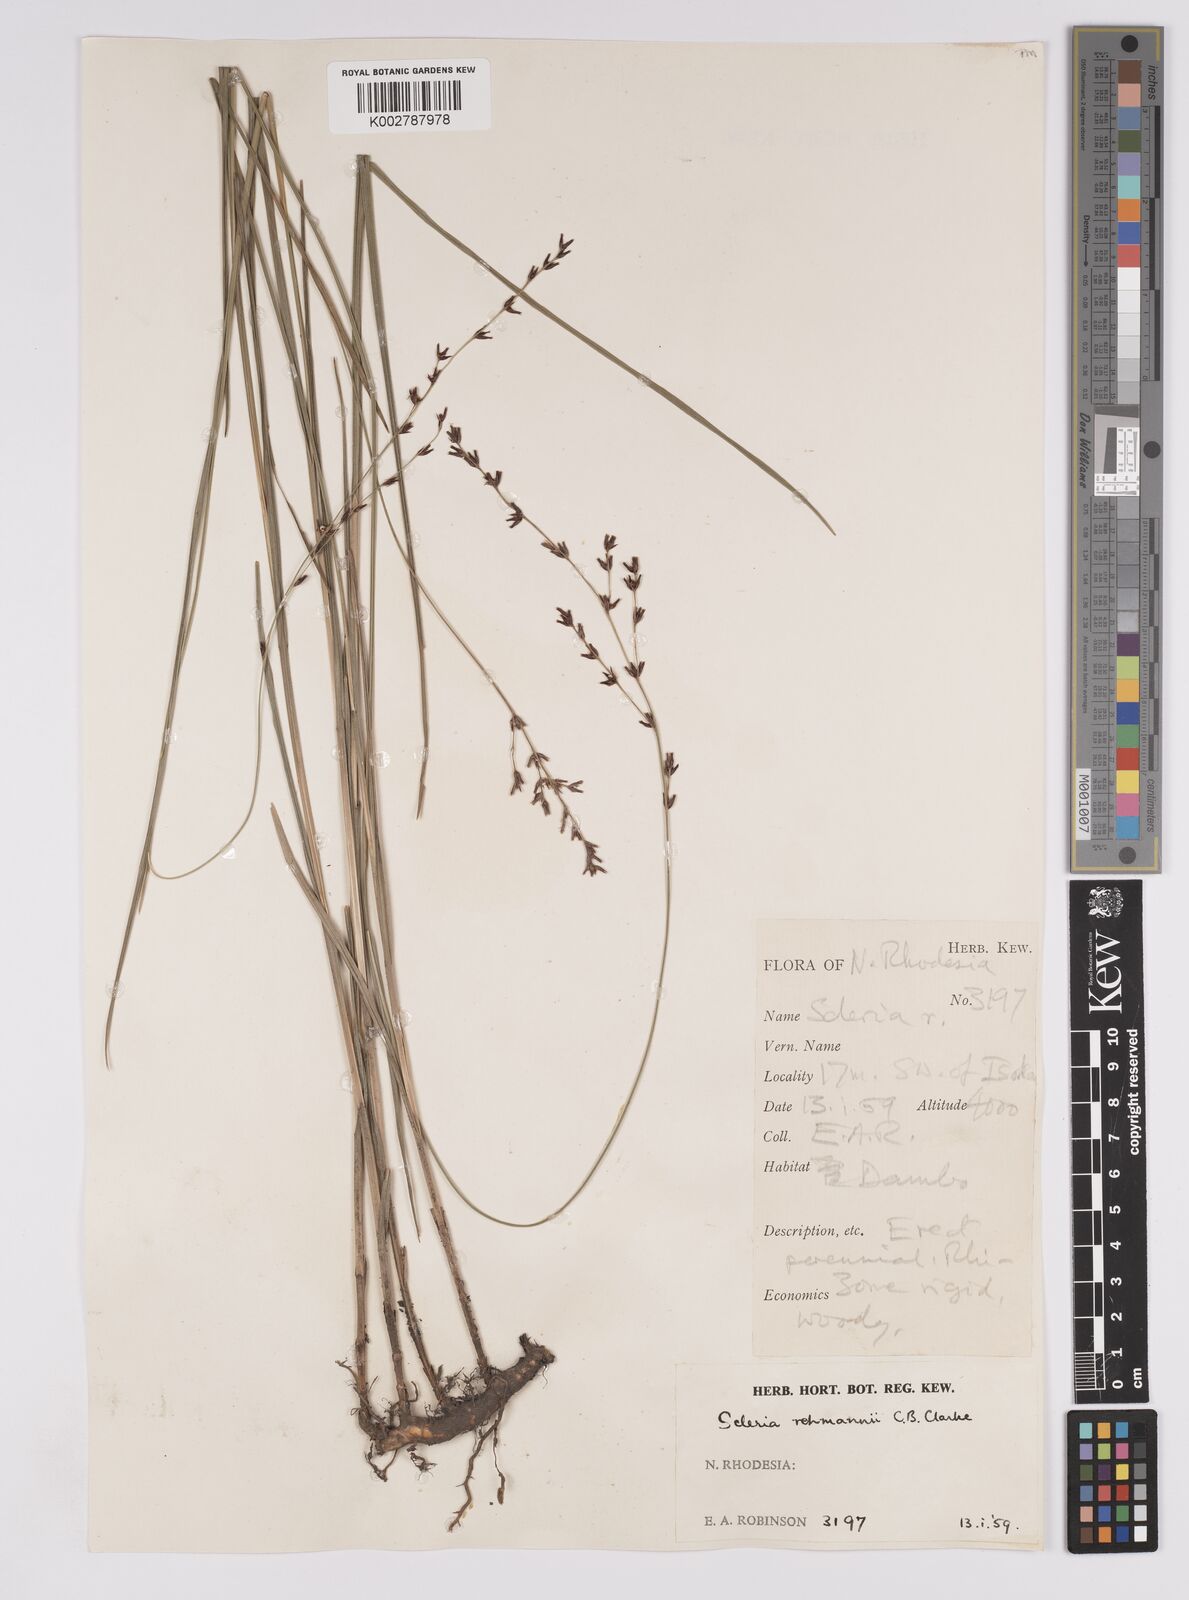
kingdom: Plantae
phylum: Tracheophyta
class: Liliopsida
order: Poales
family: Cyperaceae
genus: Scleria
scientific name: Scleria rehmannii
